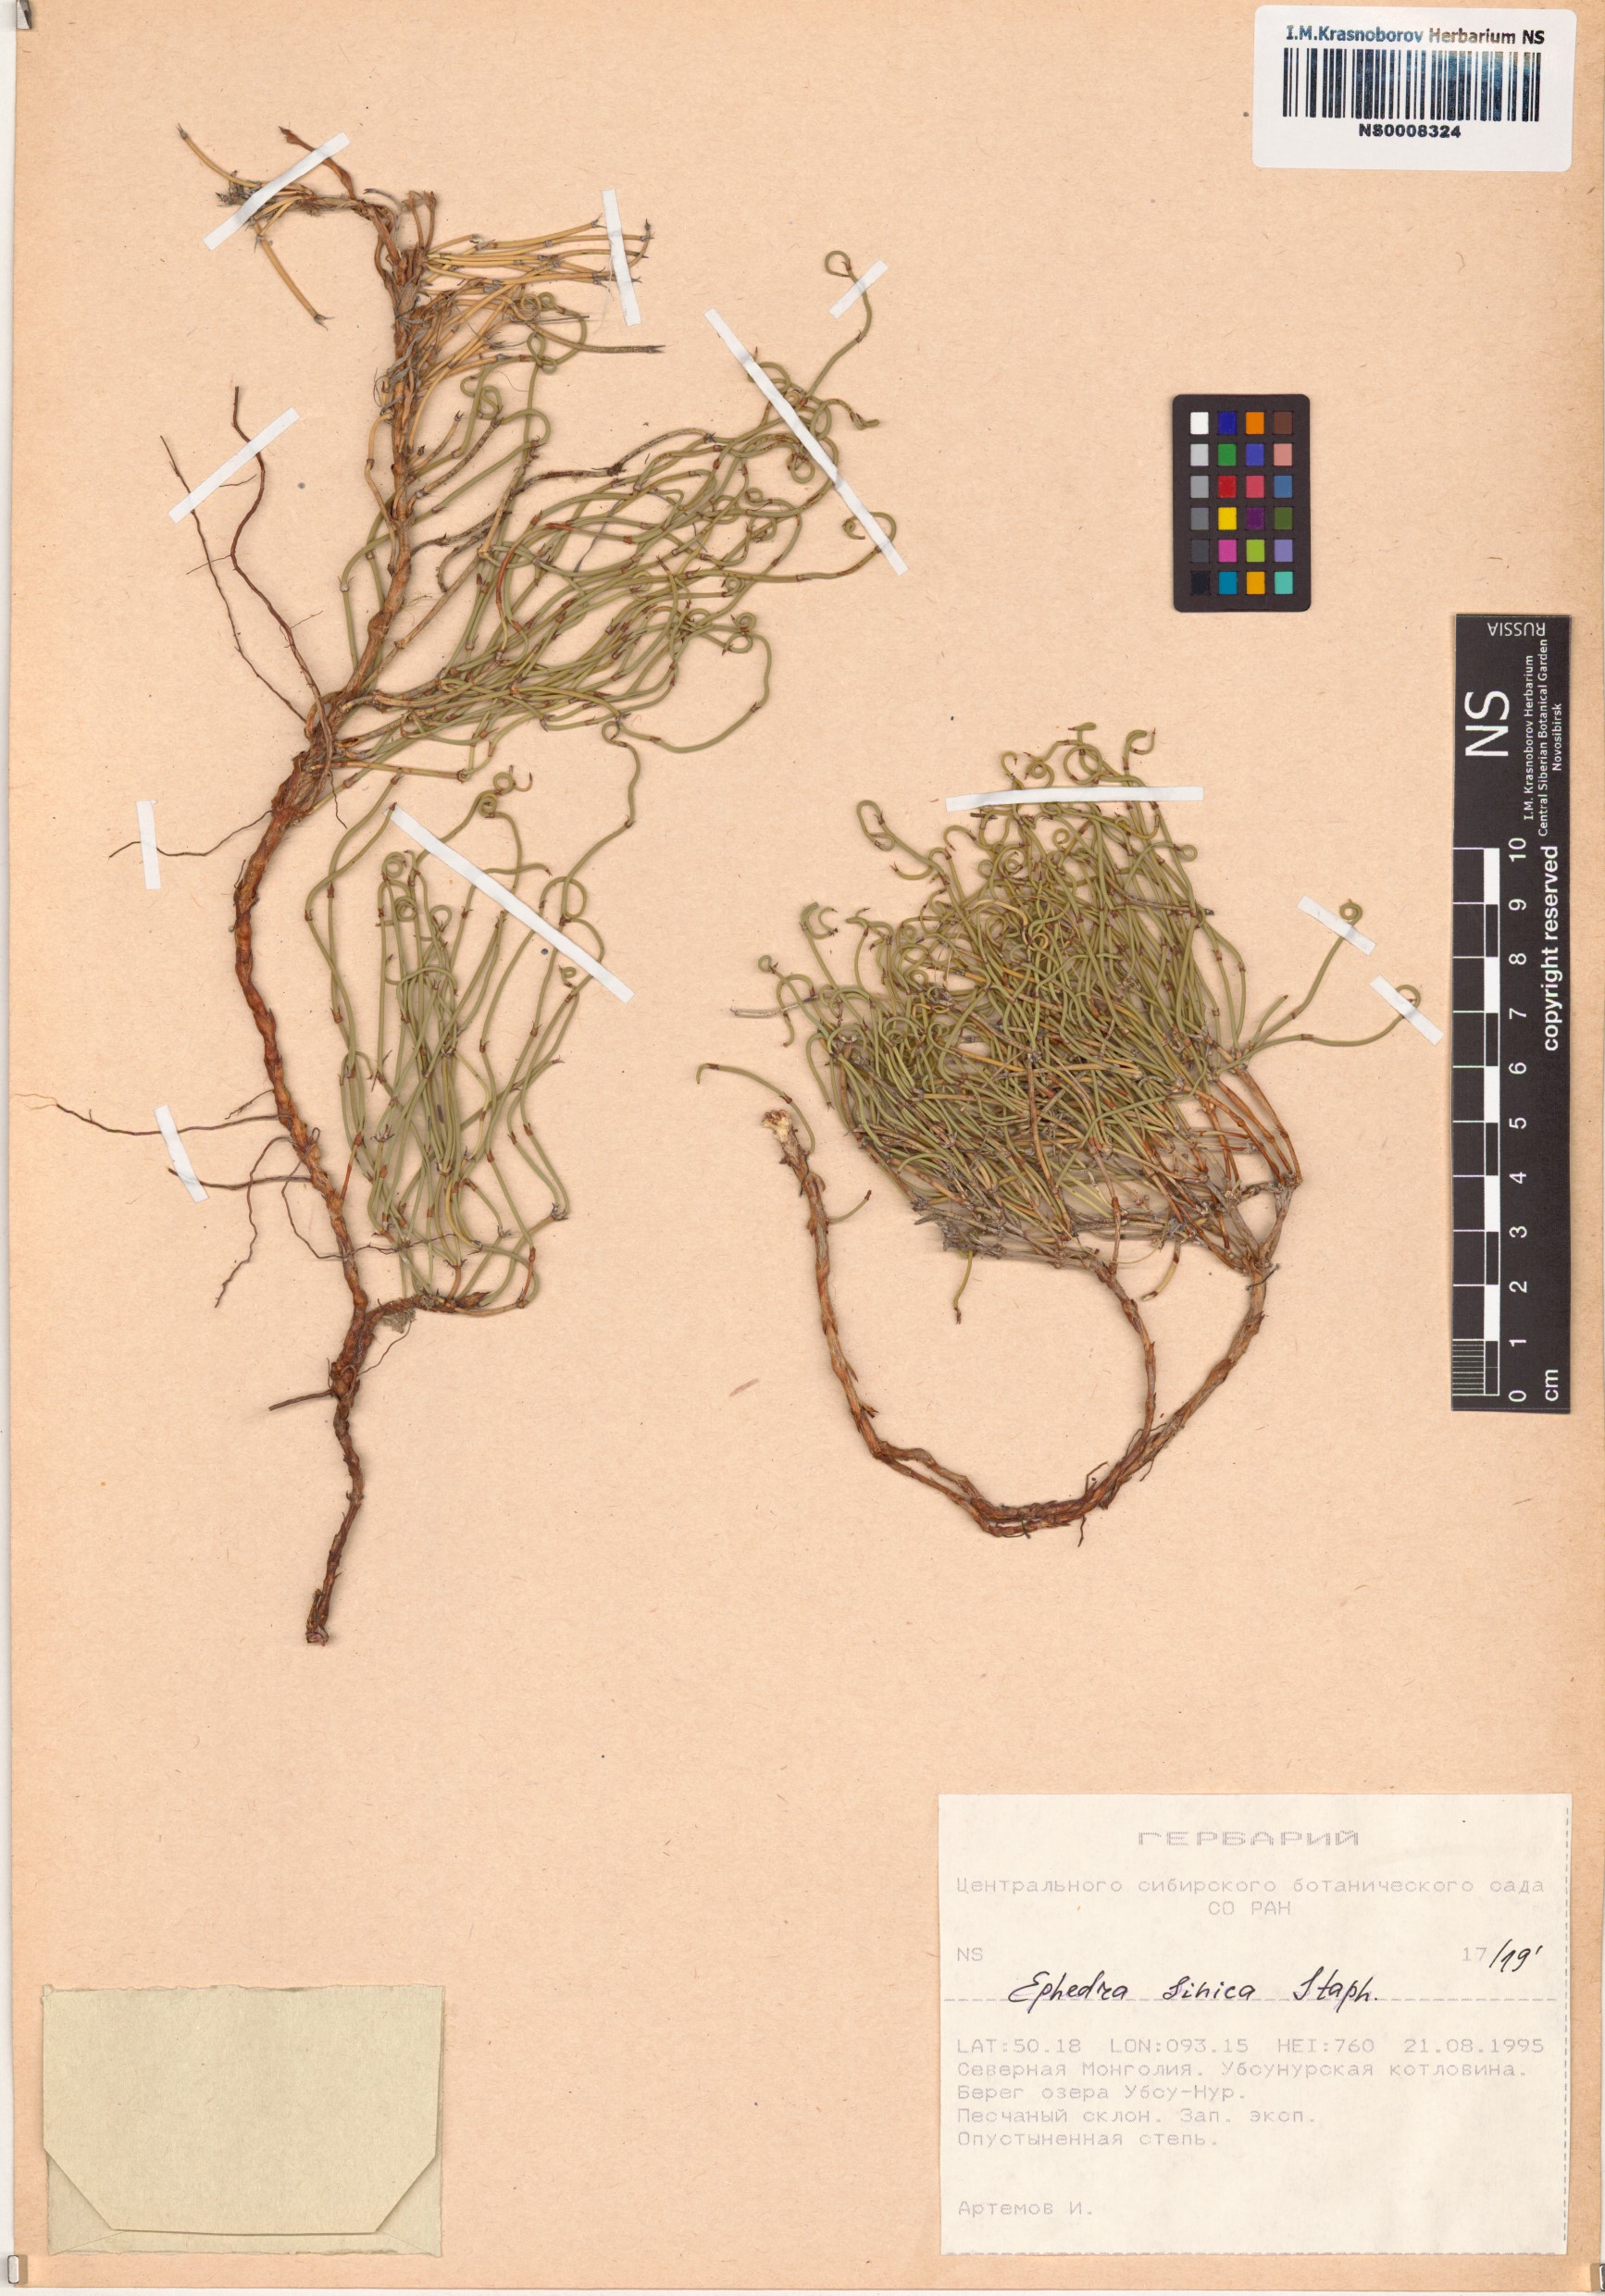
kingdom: Plantae
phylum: Tracheophyta
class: Gnetopsida
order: Ephedrales
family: Ephedraceae
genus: Ephedra
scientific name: Ephedra sinica
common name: Chinese ephedra
